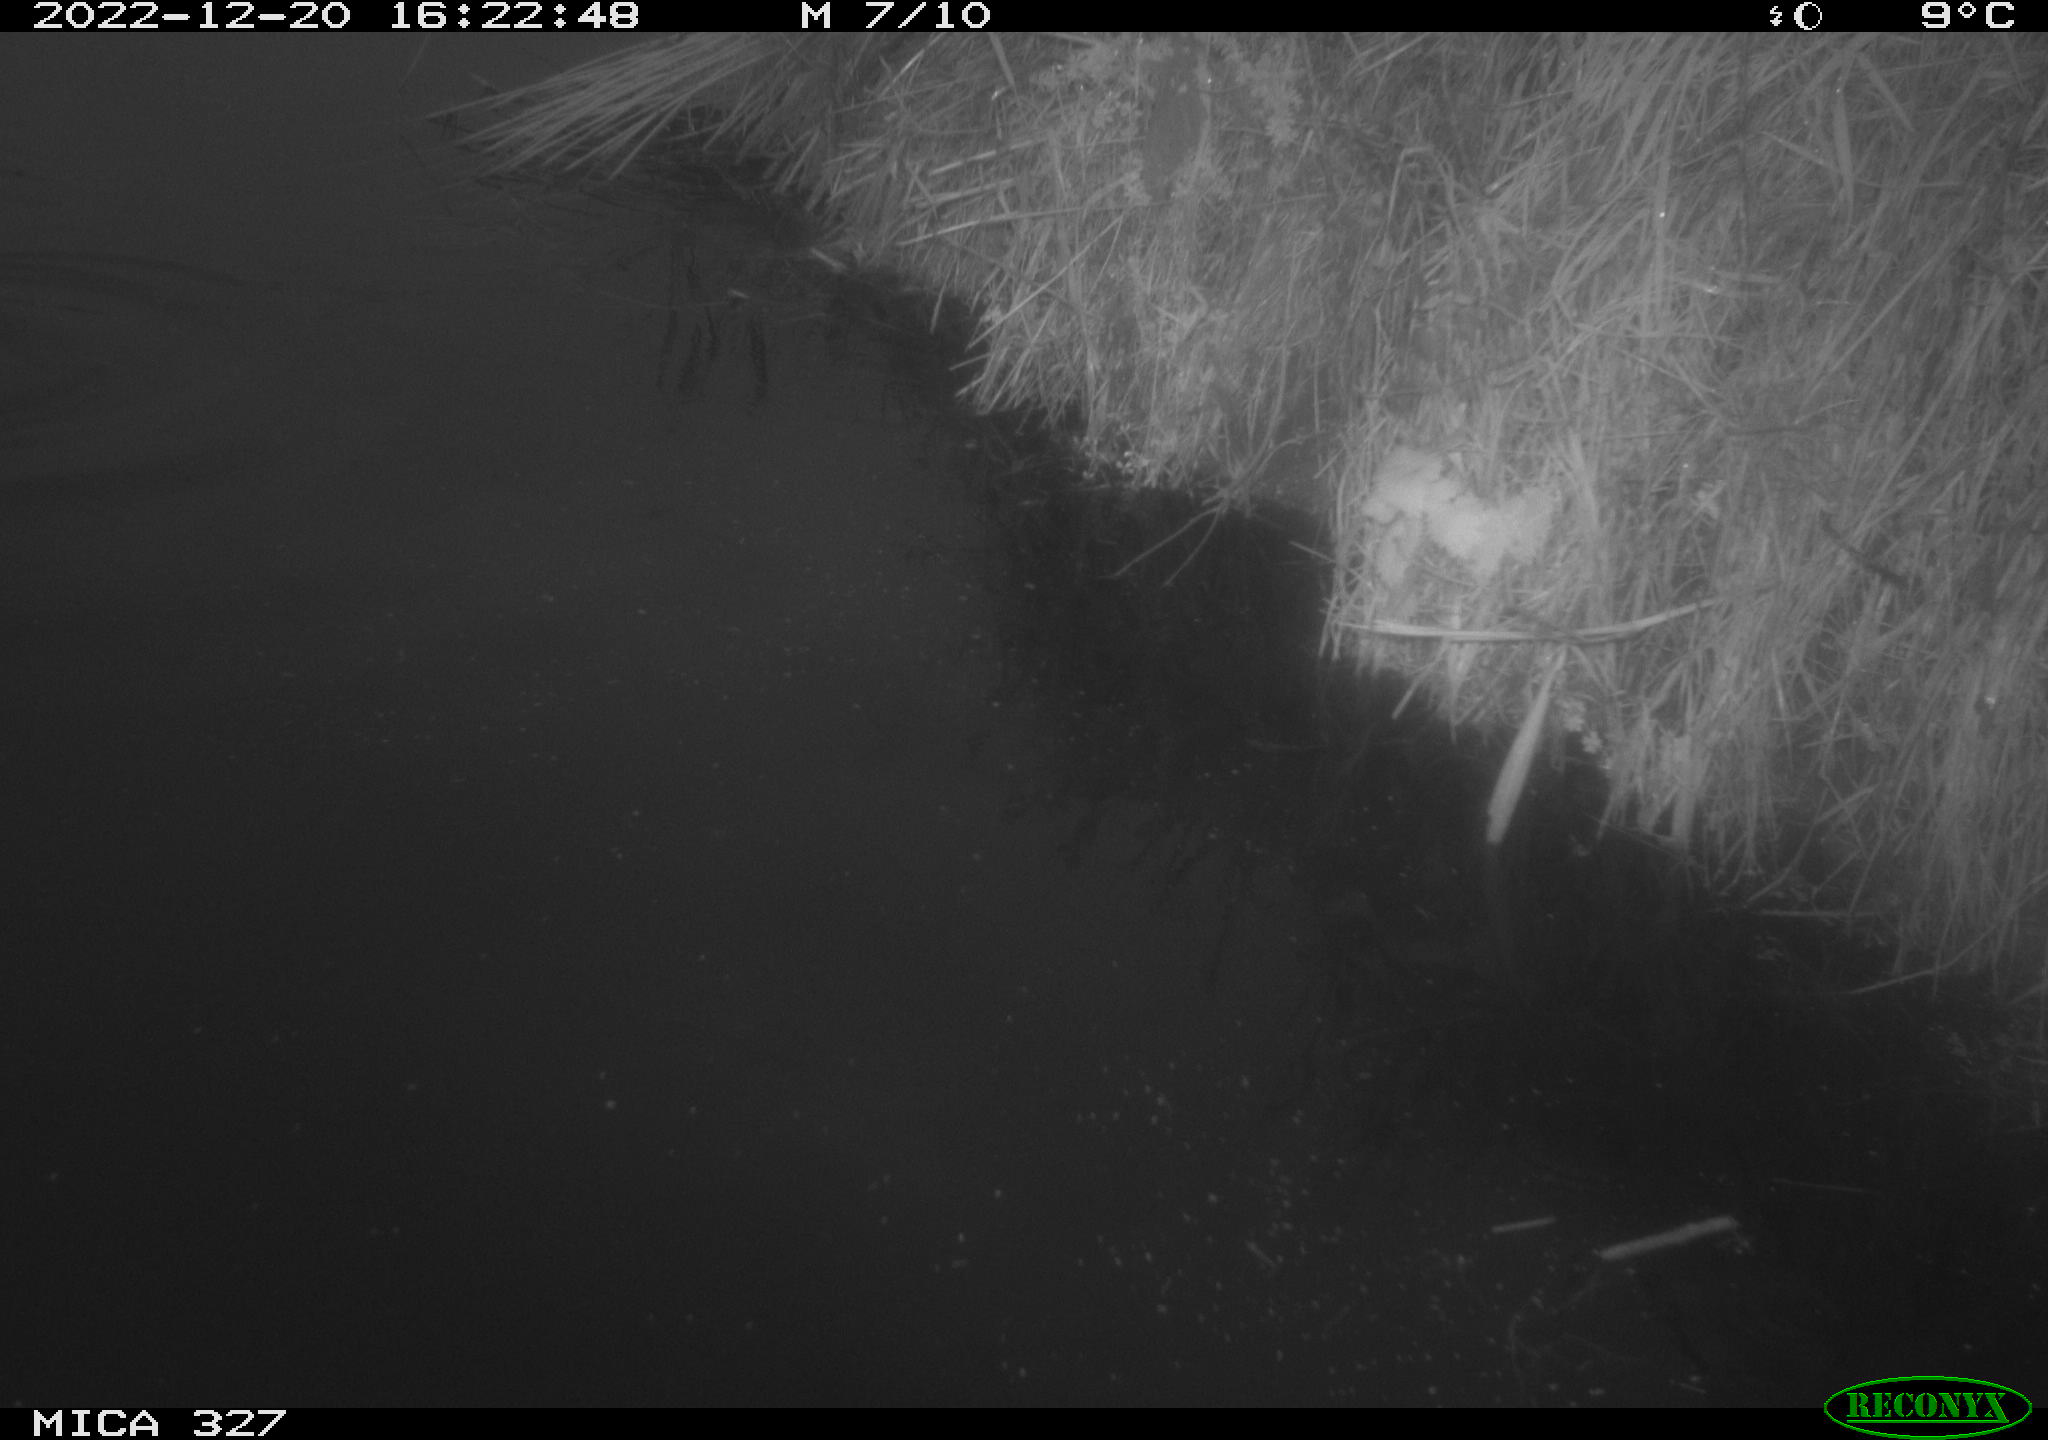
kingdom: Animalia
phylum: Chordata
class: Aves
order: Anseriformes
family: Anatidae
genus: Anas
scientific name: Anas
